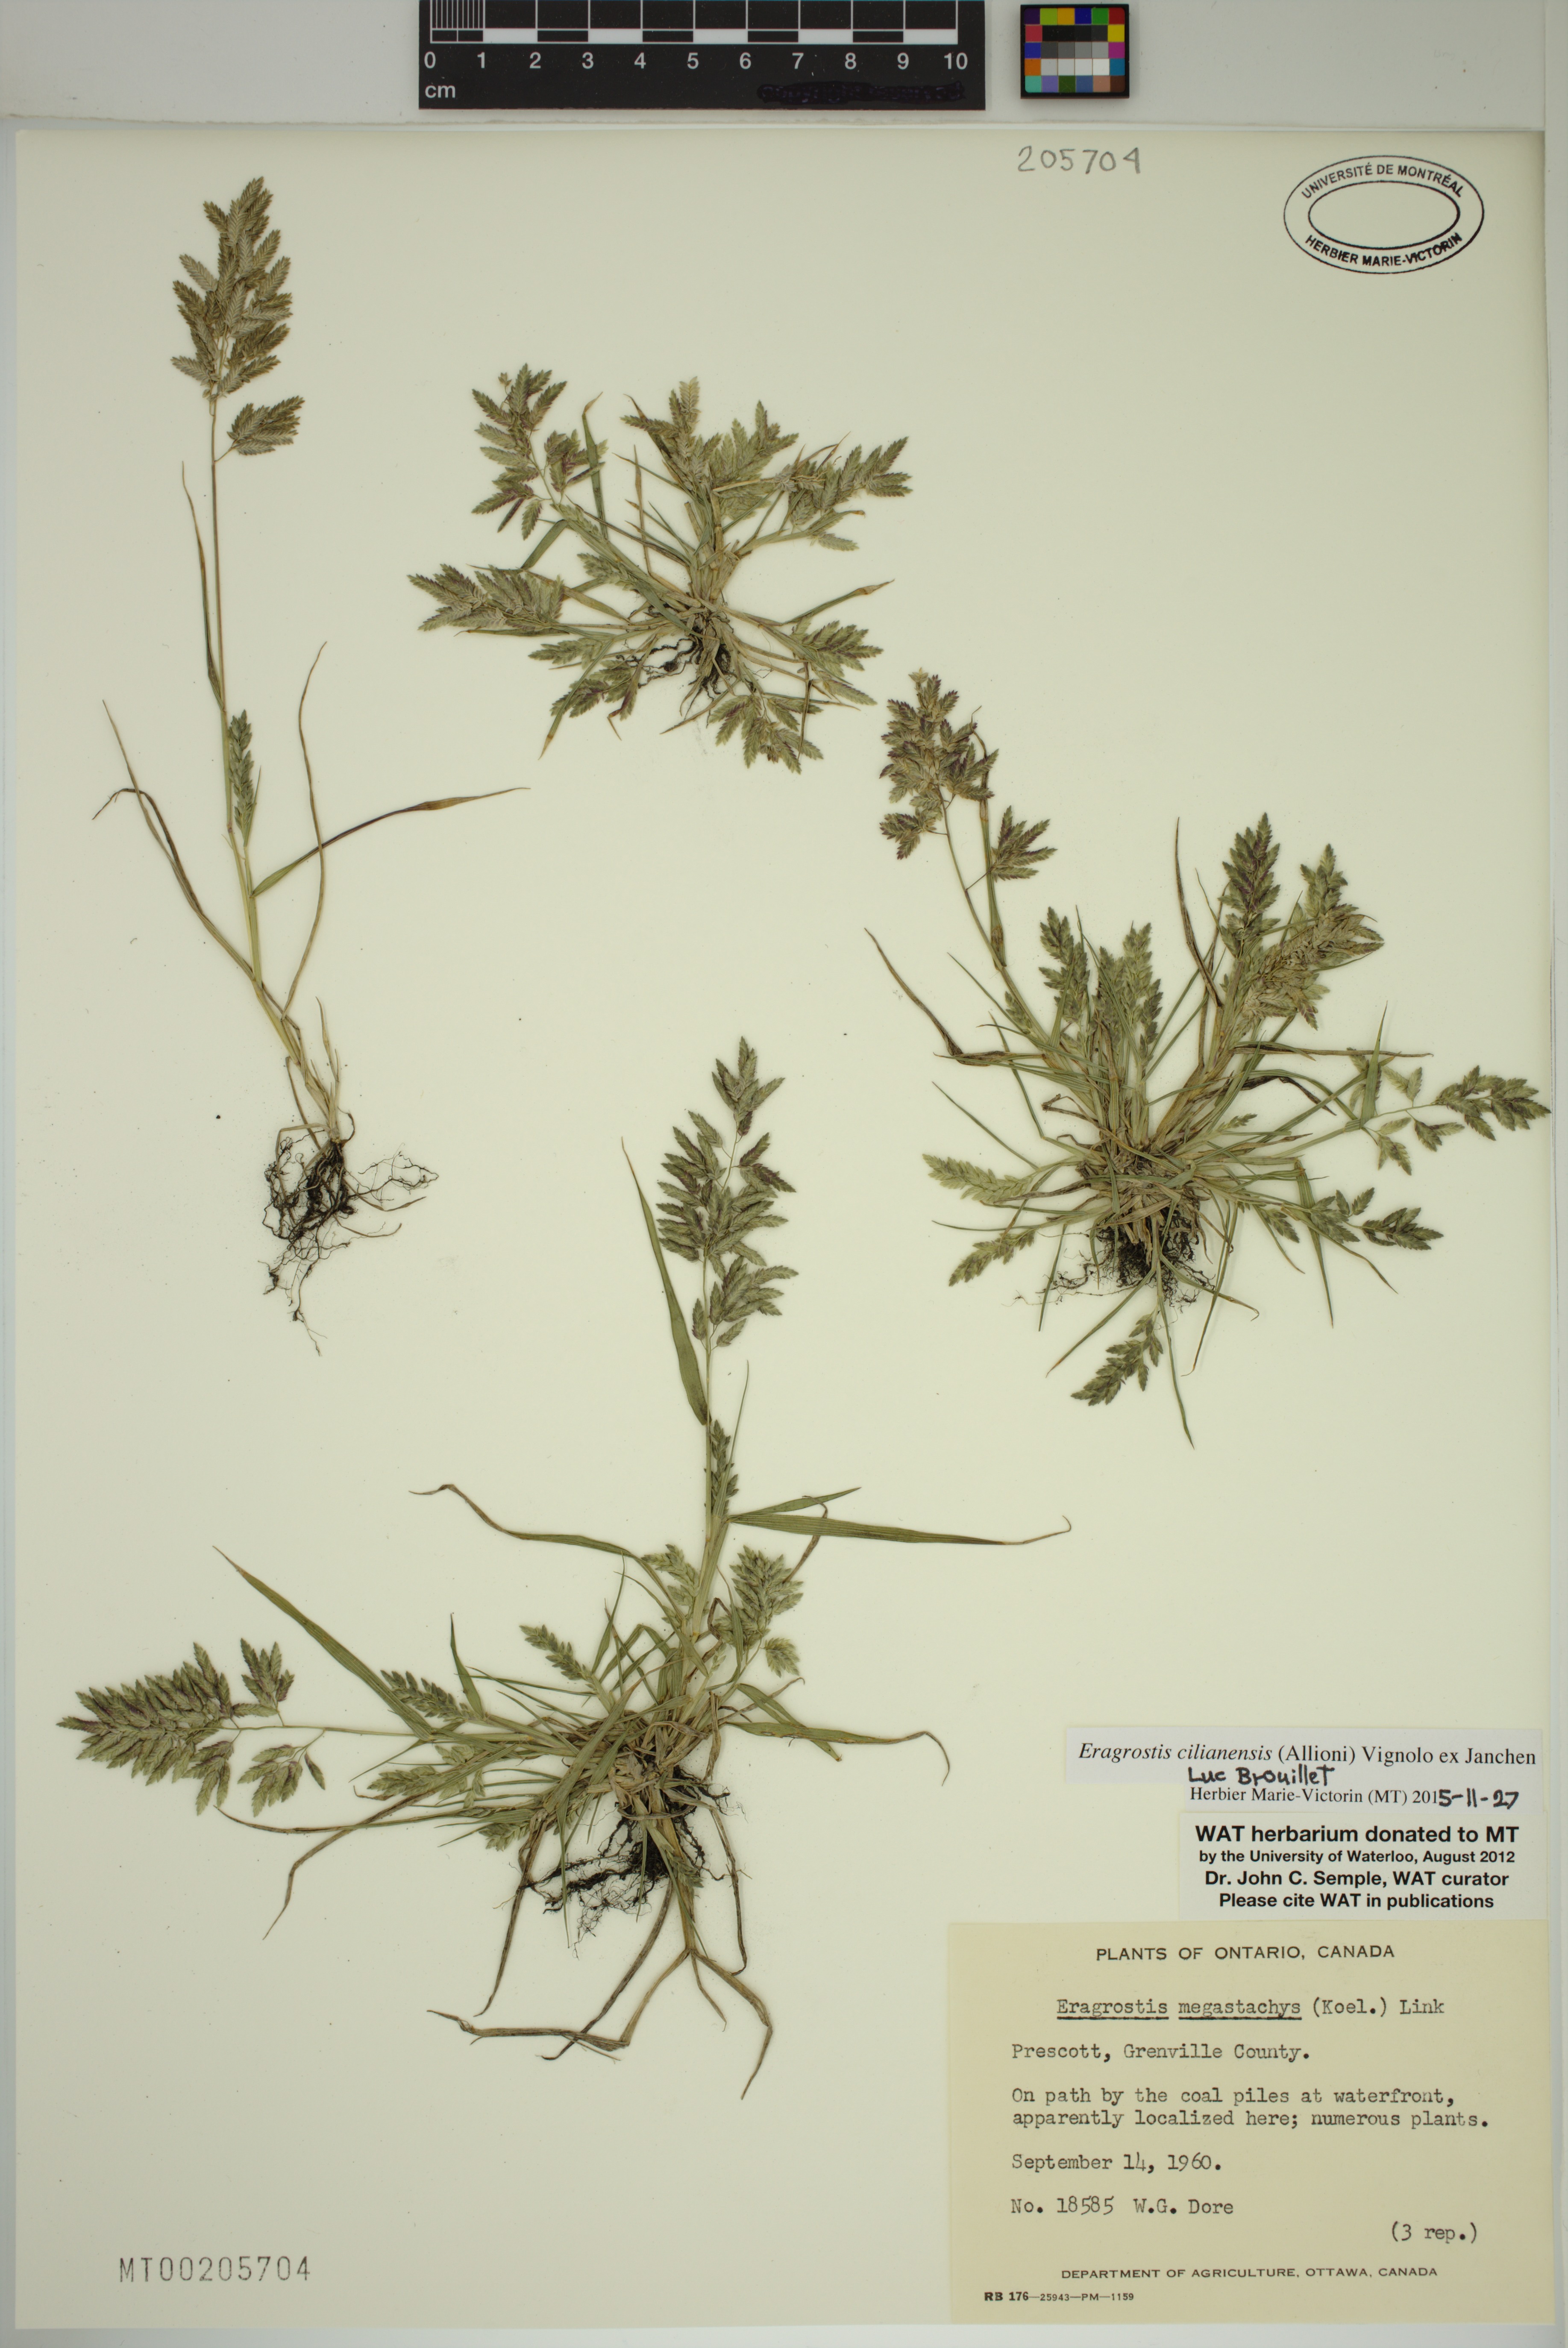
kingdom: Plantae
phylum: Tracheophyta
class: Liliopsida
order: Poales
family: Poaceae
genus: Eragrostis
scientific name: Eragrostis cilianensis
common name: Stinkgrass
